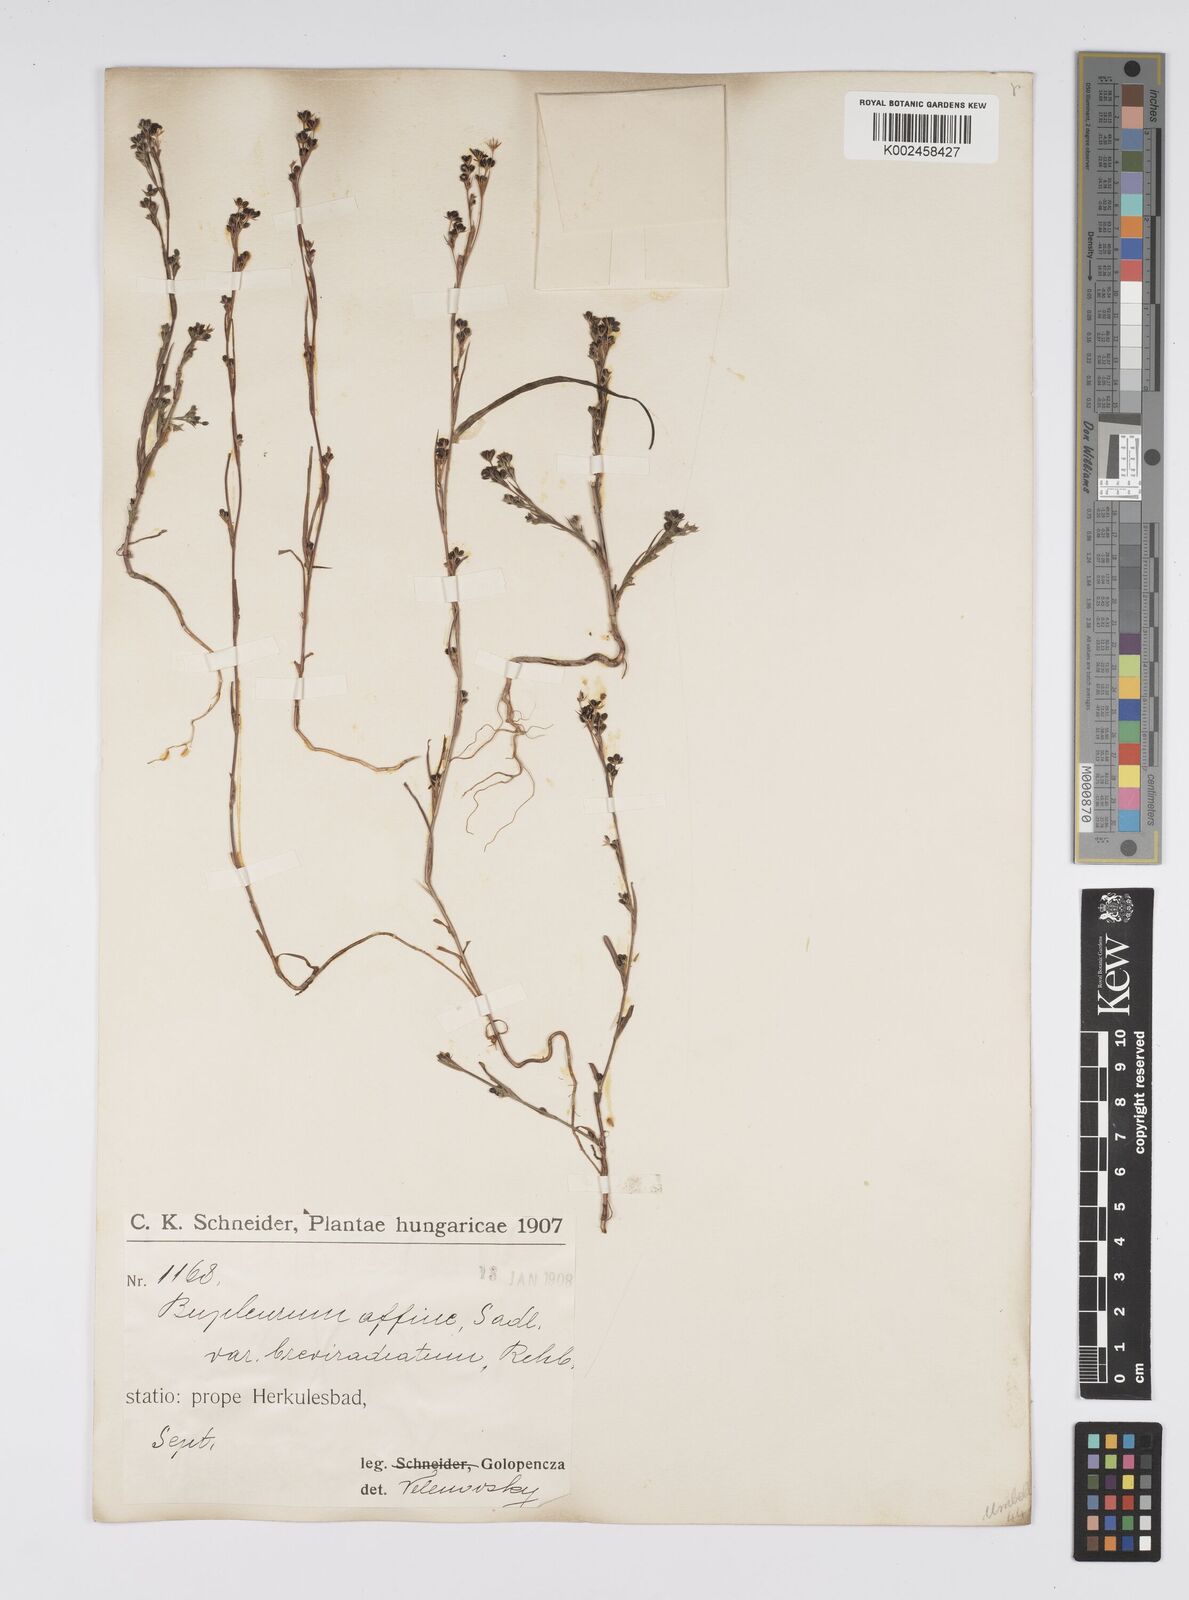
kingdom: Plantae
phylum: Tracheophyta
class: Magnoliopsida
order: Apiales
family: Apiaceae
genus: Bupleurum
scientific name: Bupleurum affine
